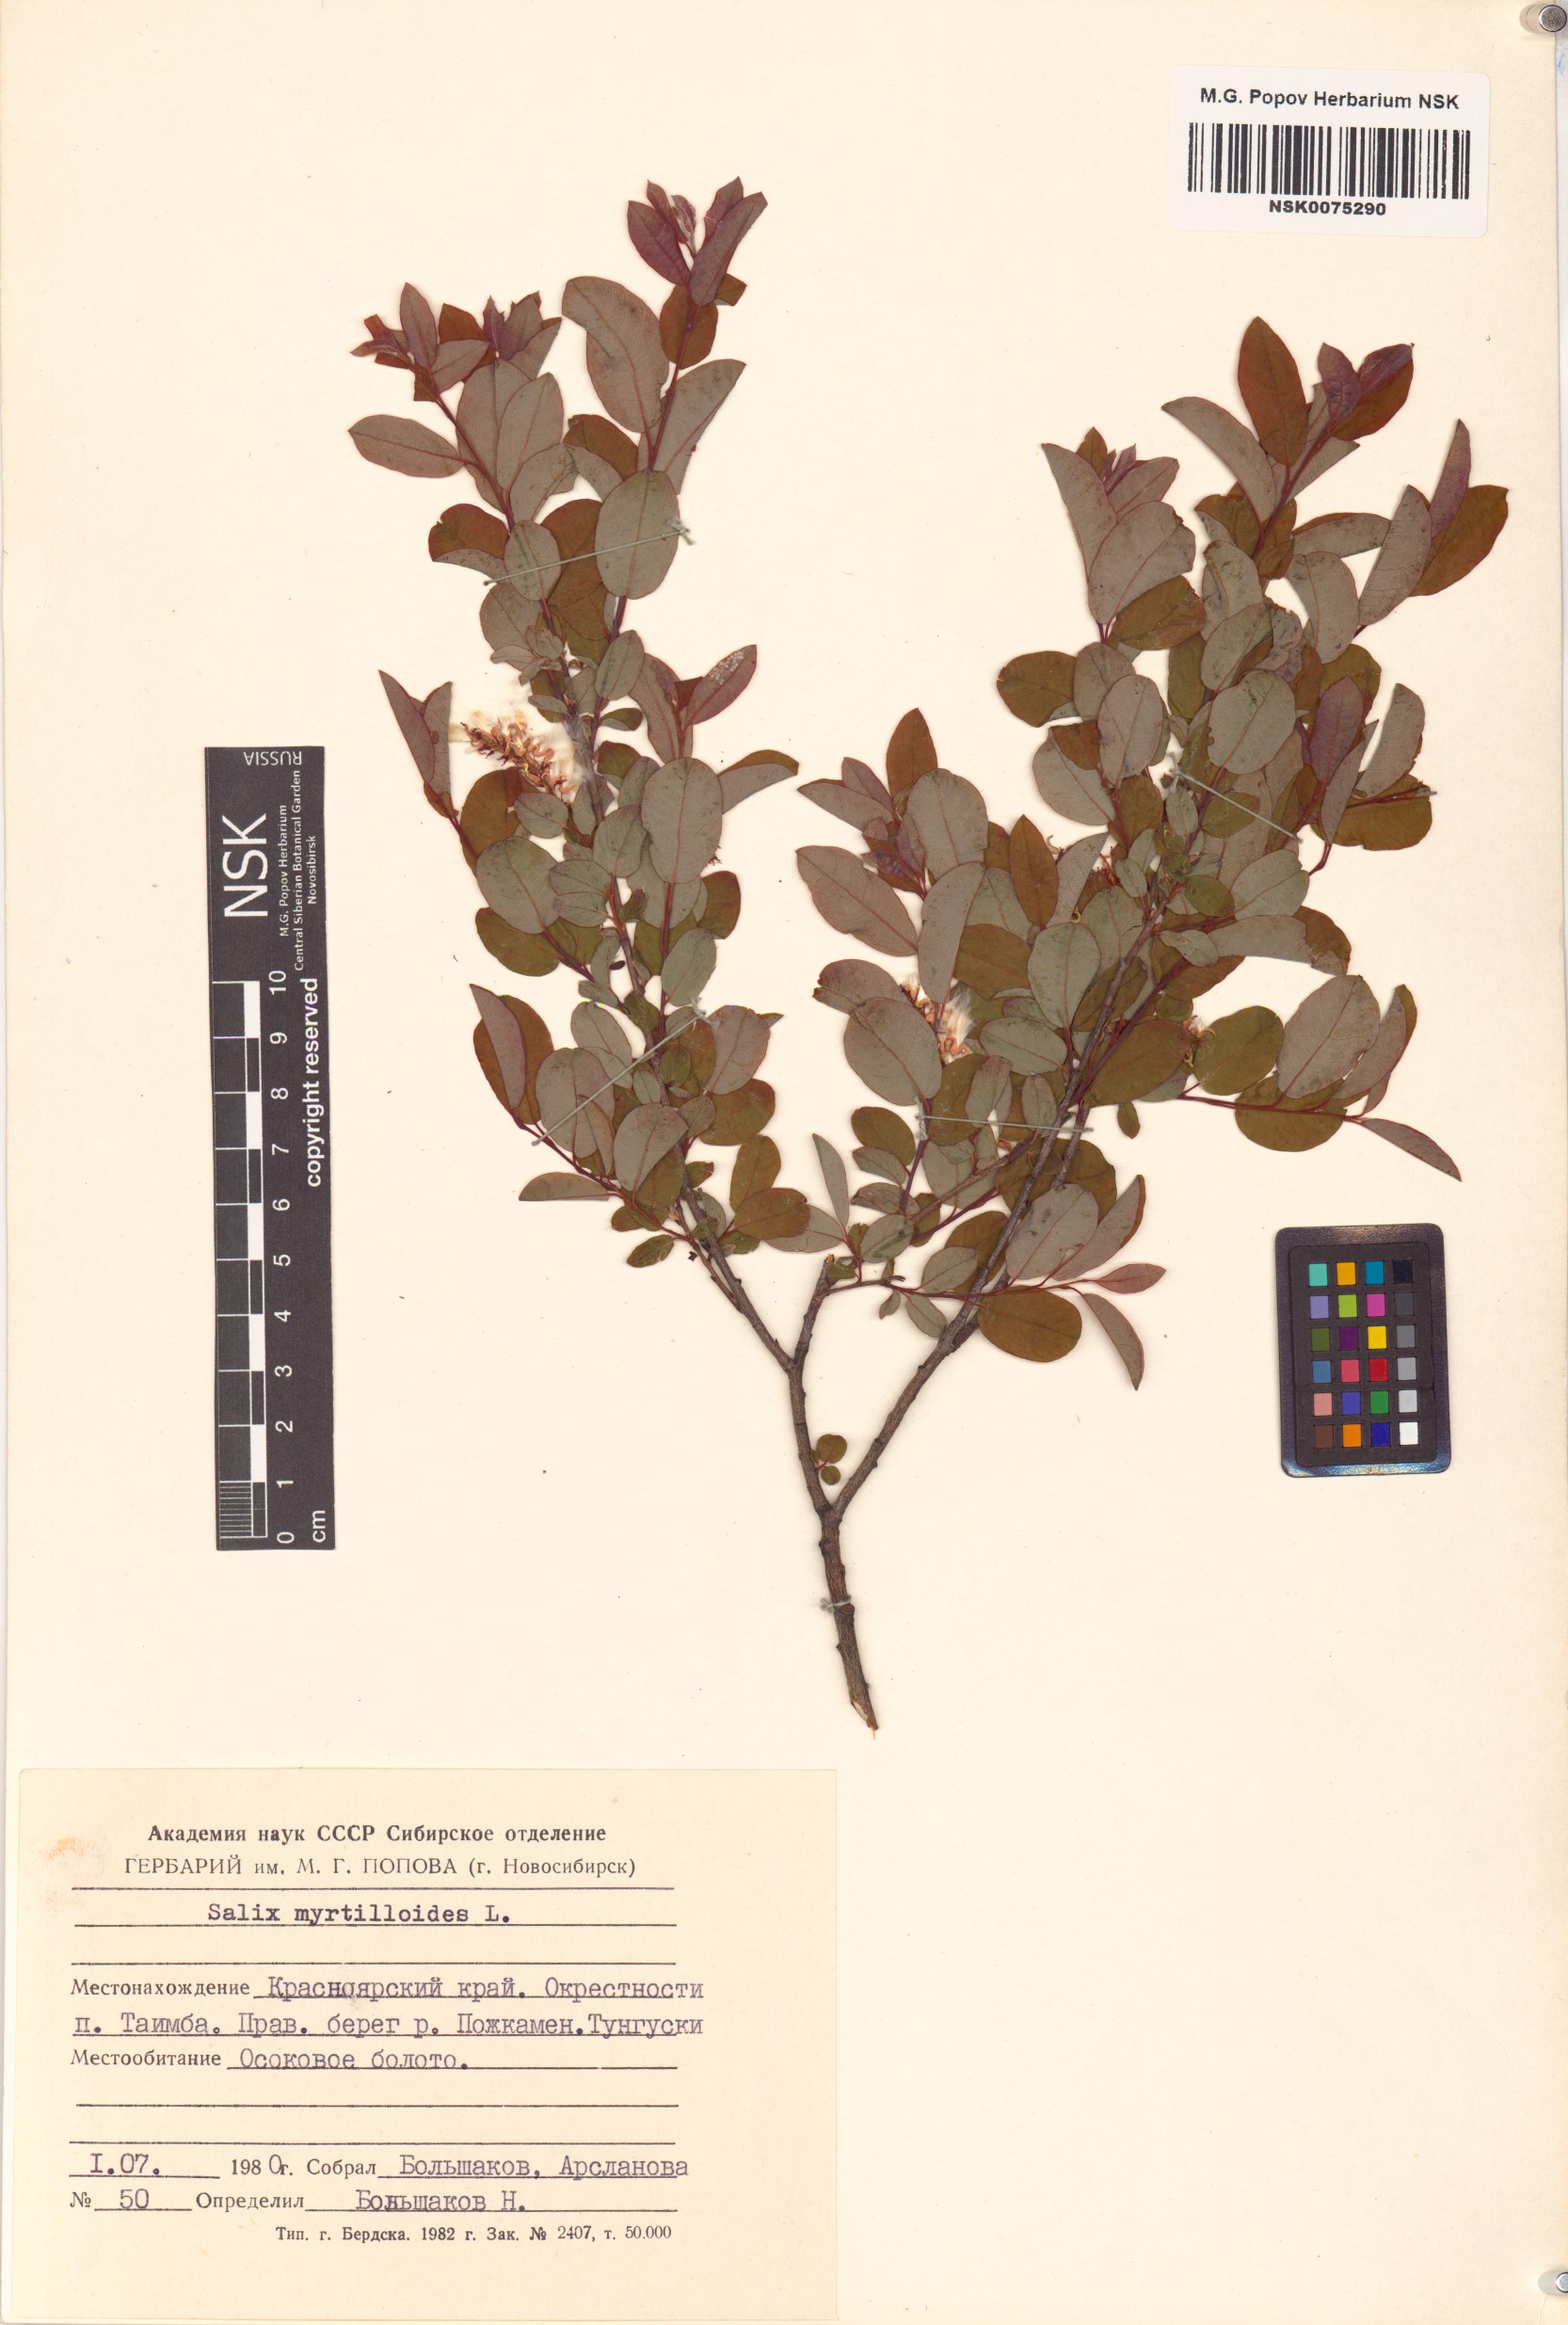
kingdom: Plantae
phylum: Tracheophyta
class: Magnoliopsida
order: Malpighiales
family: Salicaceae
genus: Salix
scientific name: Salix myrtilloides
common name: Myrtle-leaved willow
